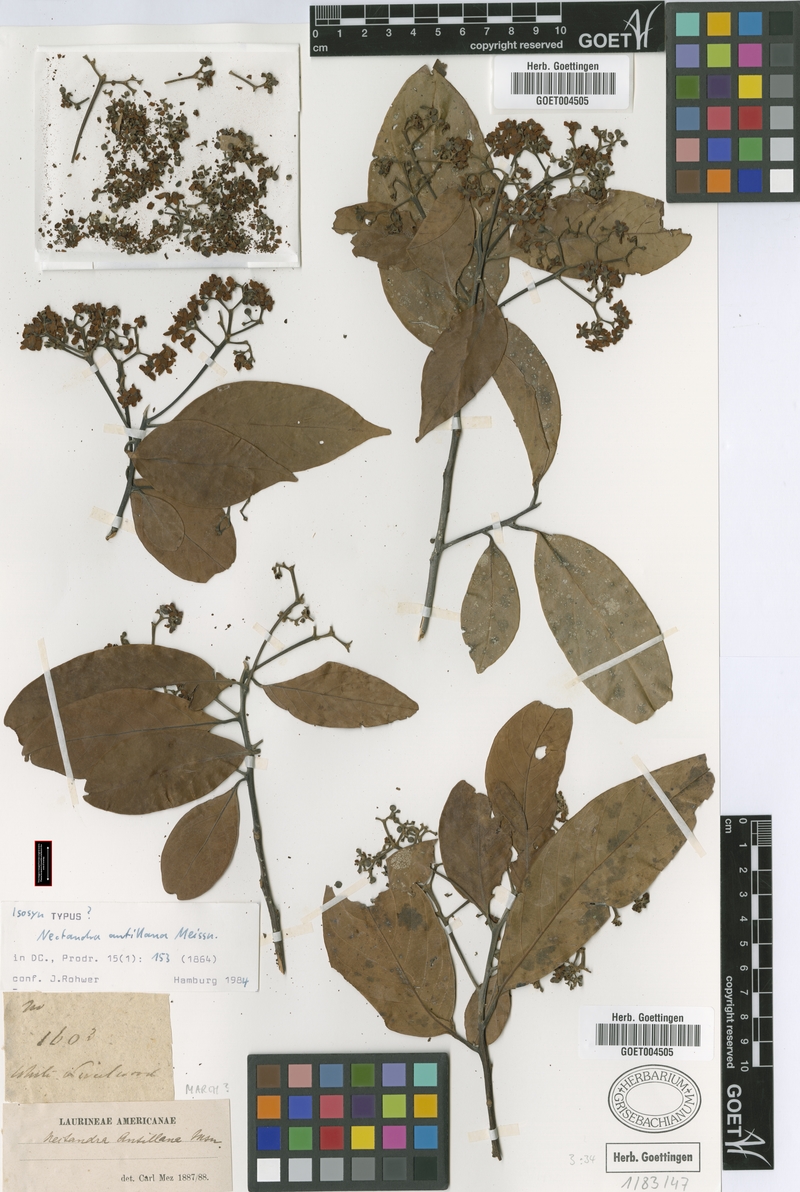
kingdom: Plantae
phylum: Tracheophyta
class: Magnoliopsida
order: Laurales
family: Lauraceae
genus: Nectandra
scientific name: Nectandra hihua
